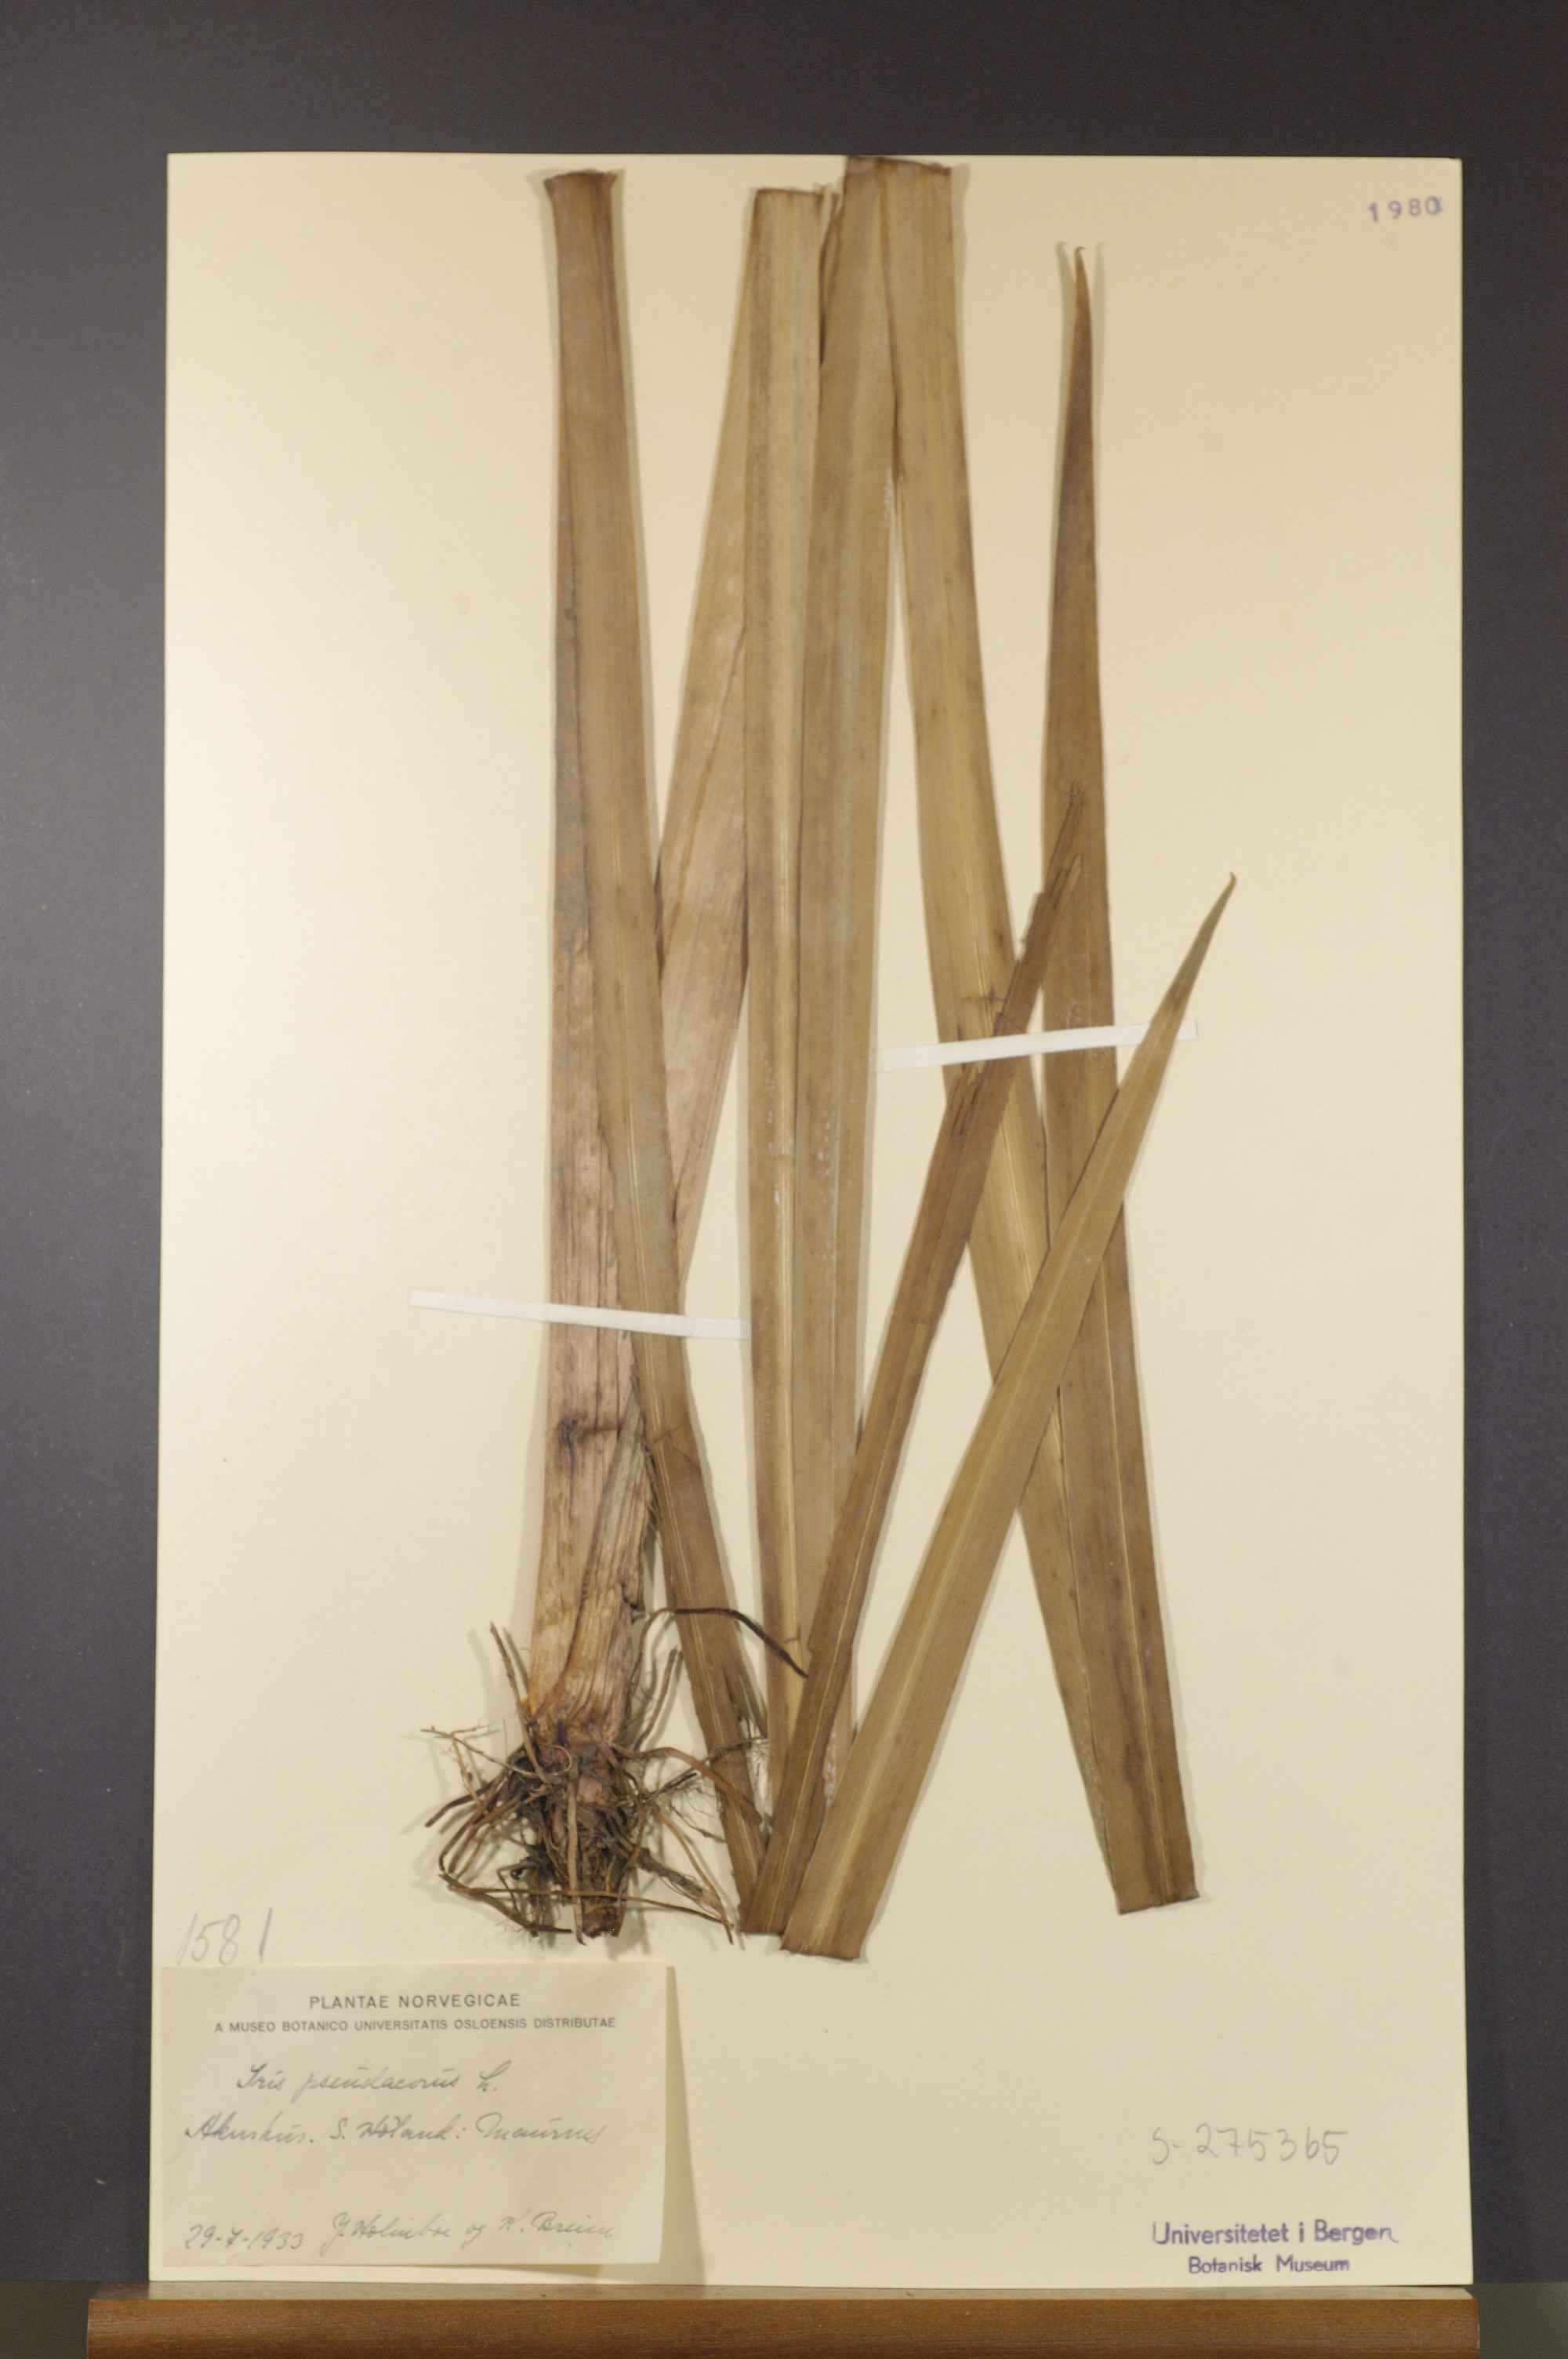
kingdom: Plantae
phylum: Tracheophyta
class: Liliopsida
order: Asparagales
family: Iridaceae
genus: Iris
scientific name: Iris pseudacorus
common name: Yellow flag
